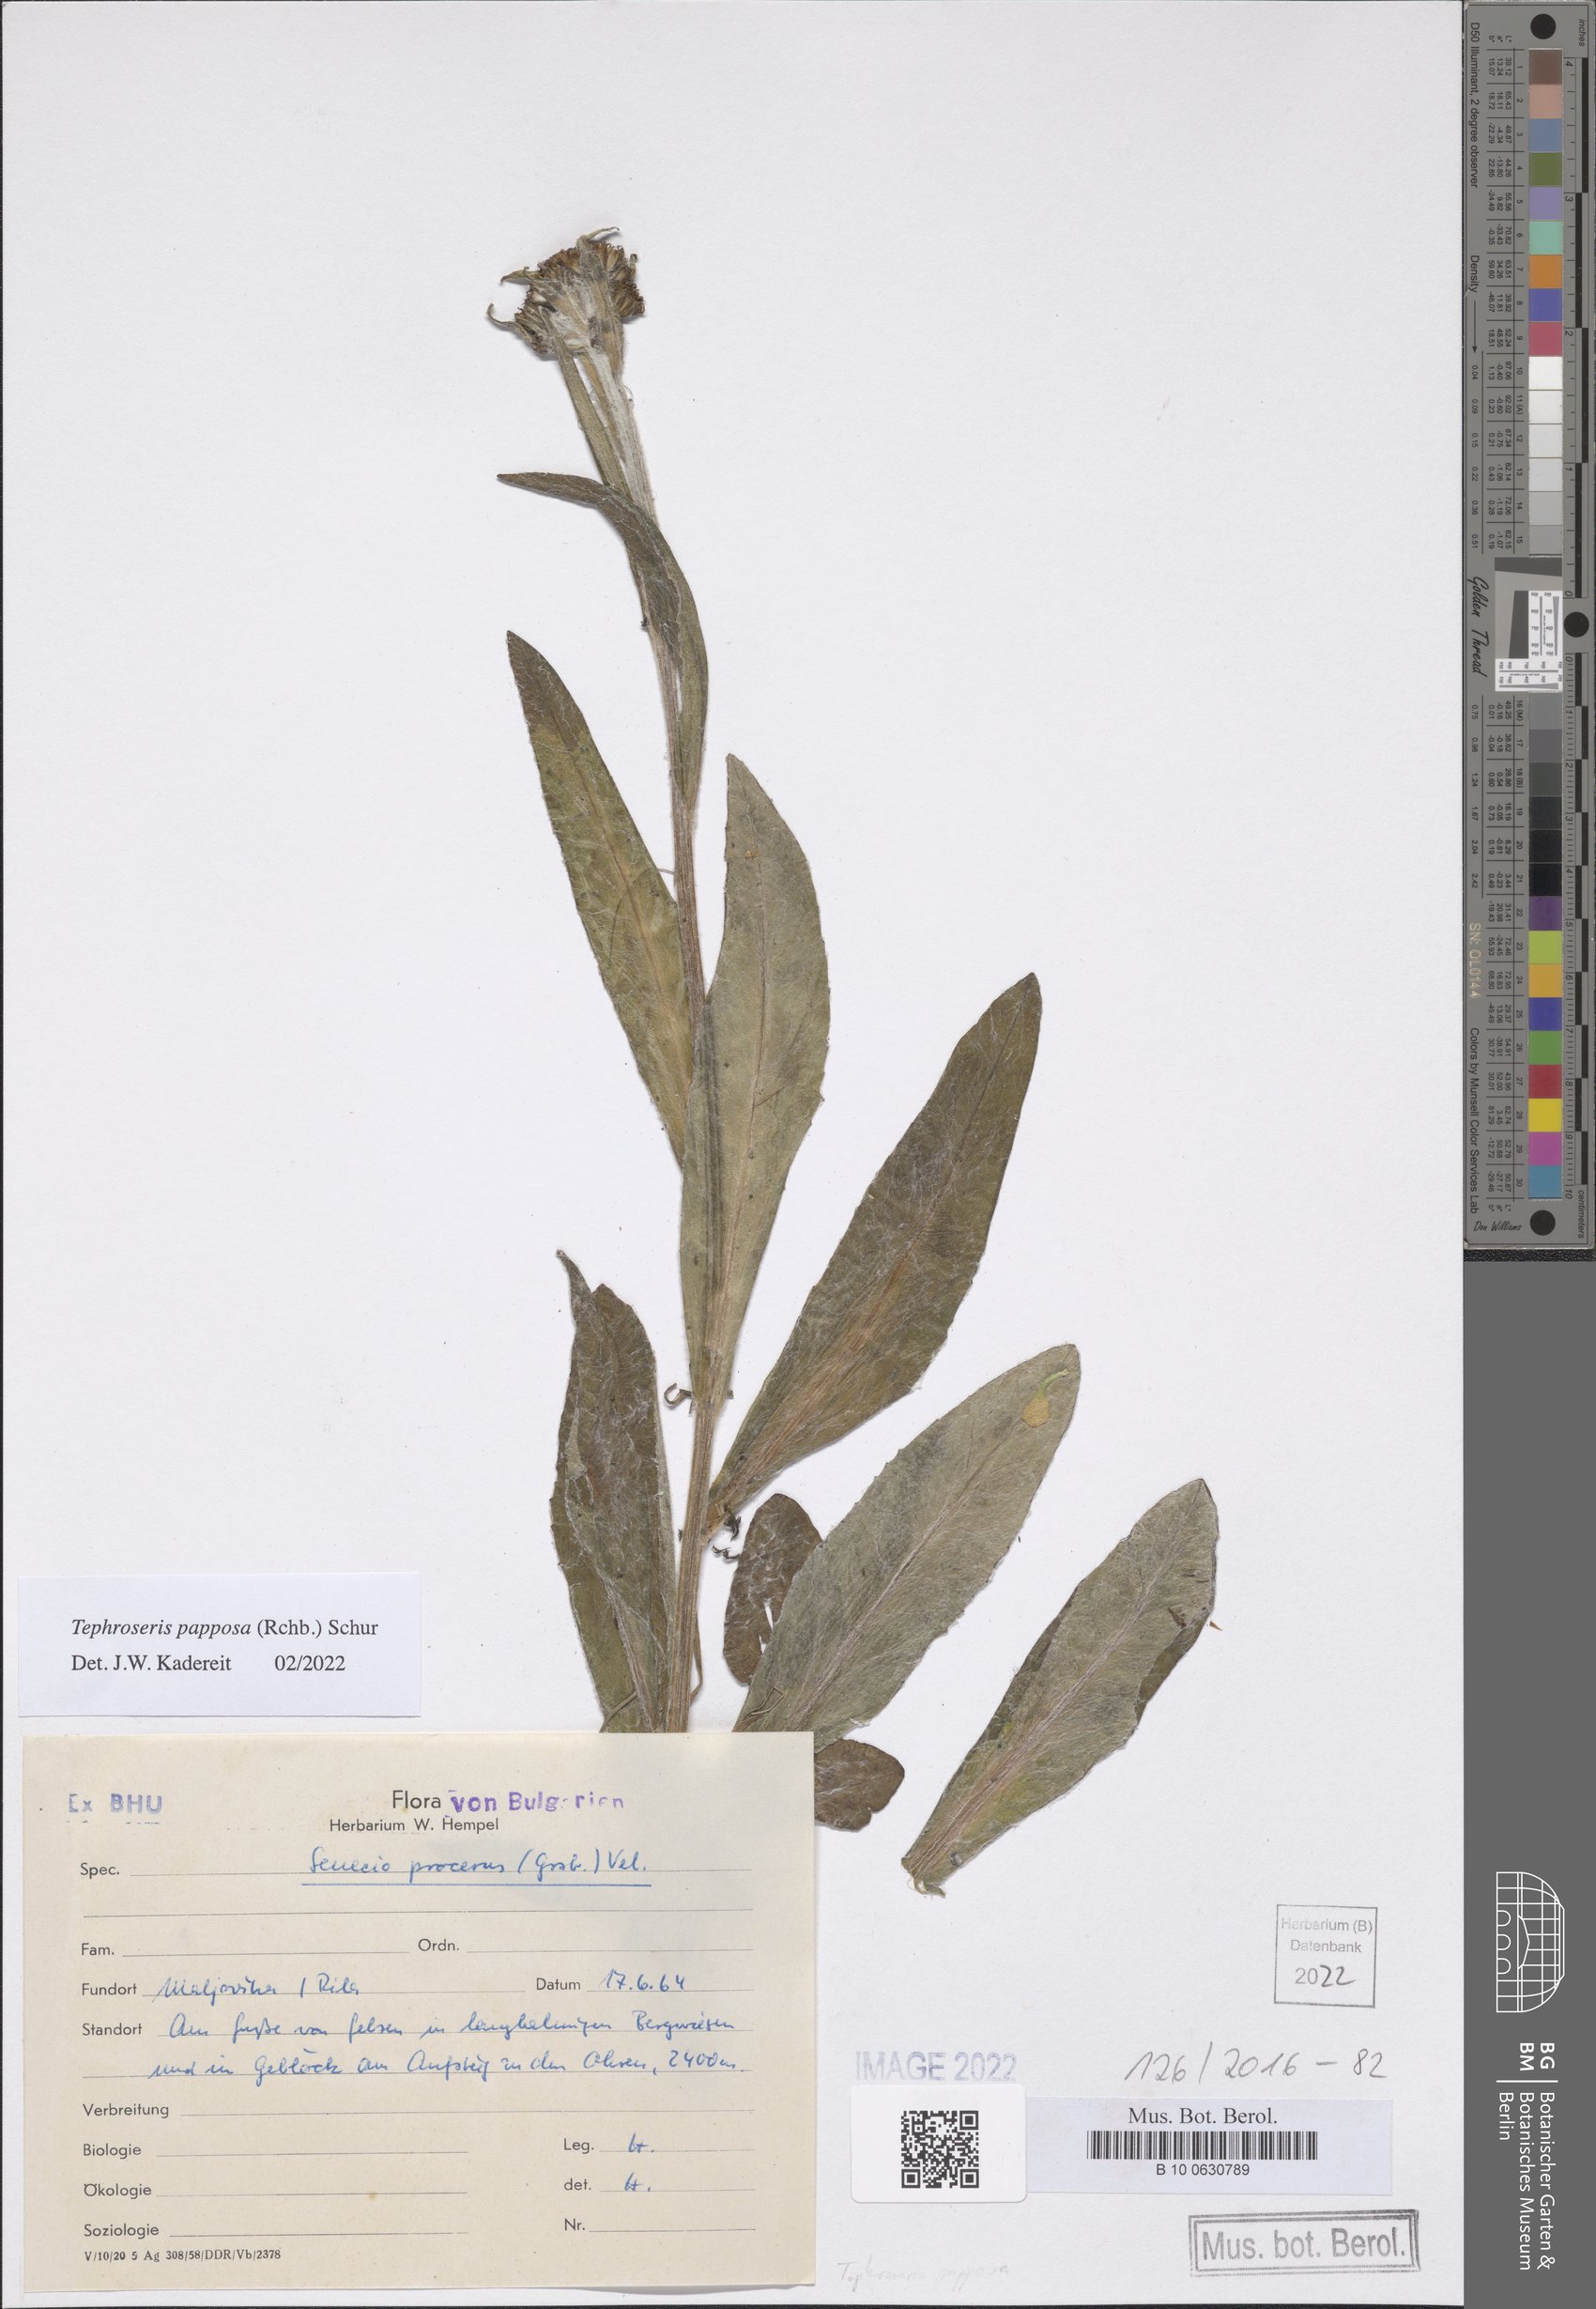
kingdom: Plantae
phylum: Tracheophyta
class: Magnoliopsida
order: Asterales
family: Asteraceae
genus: Tephroseris
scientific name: Tephroseris papposa
